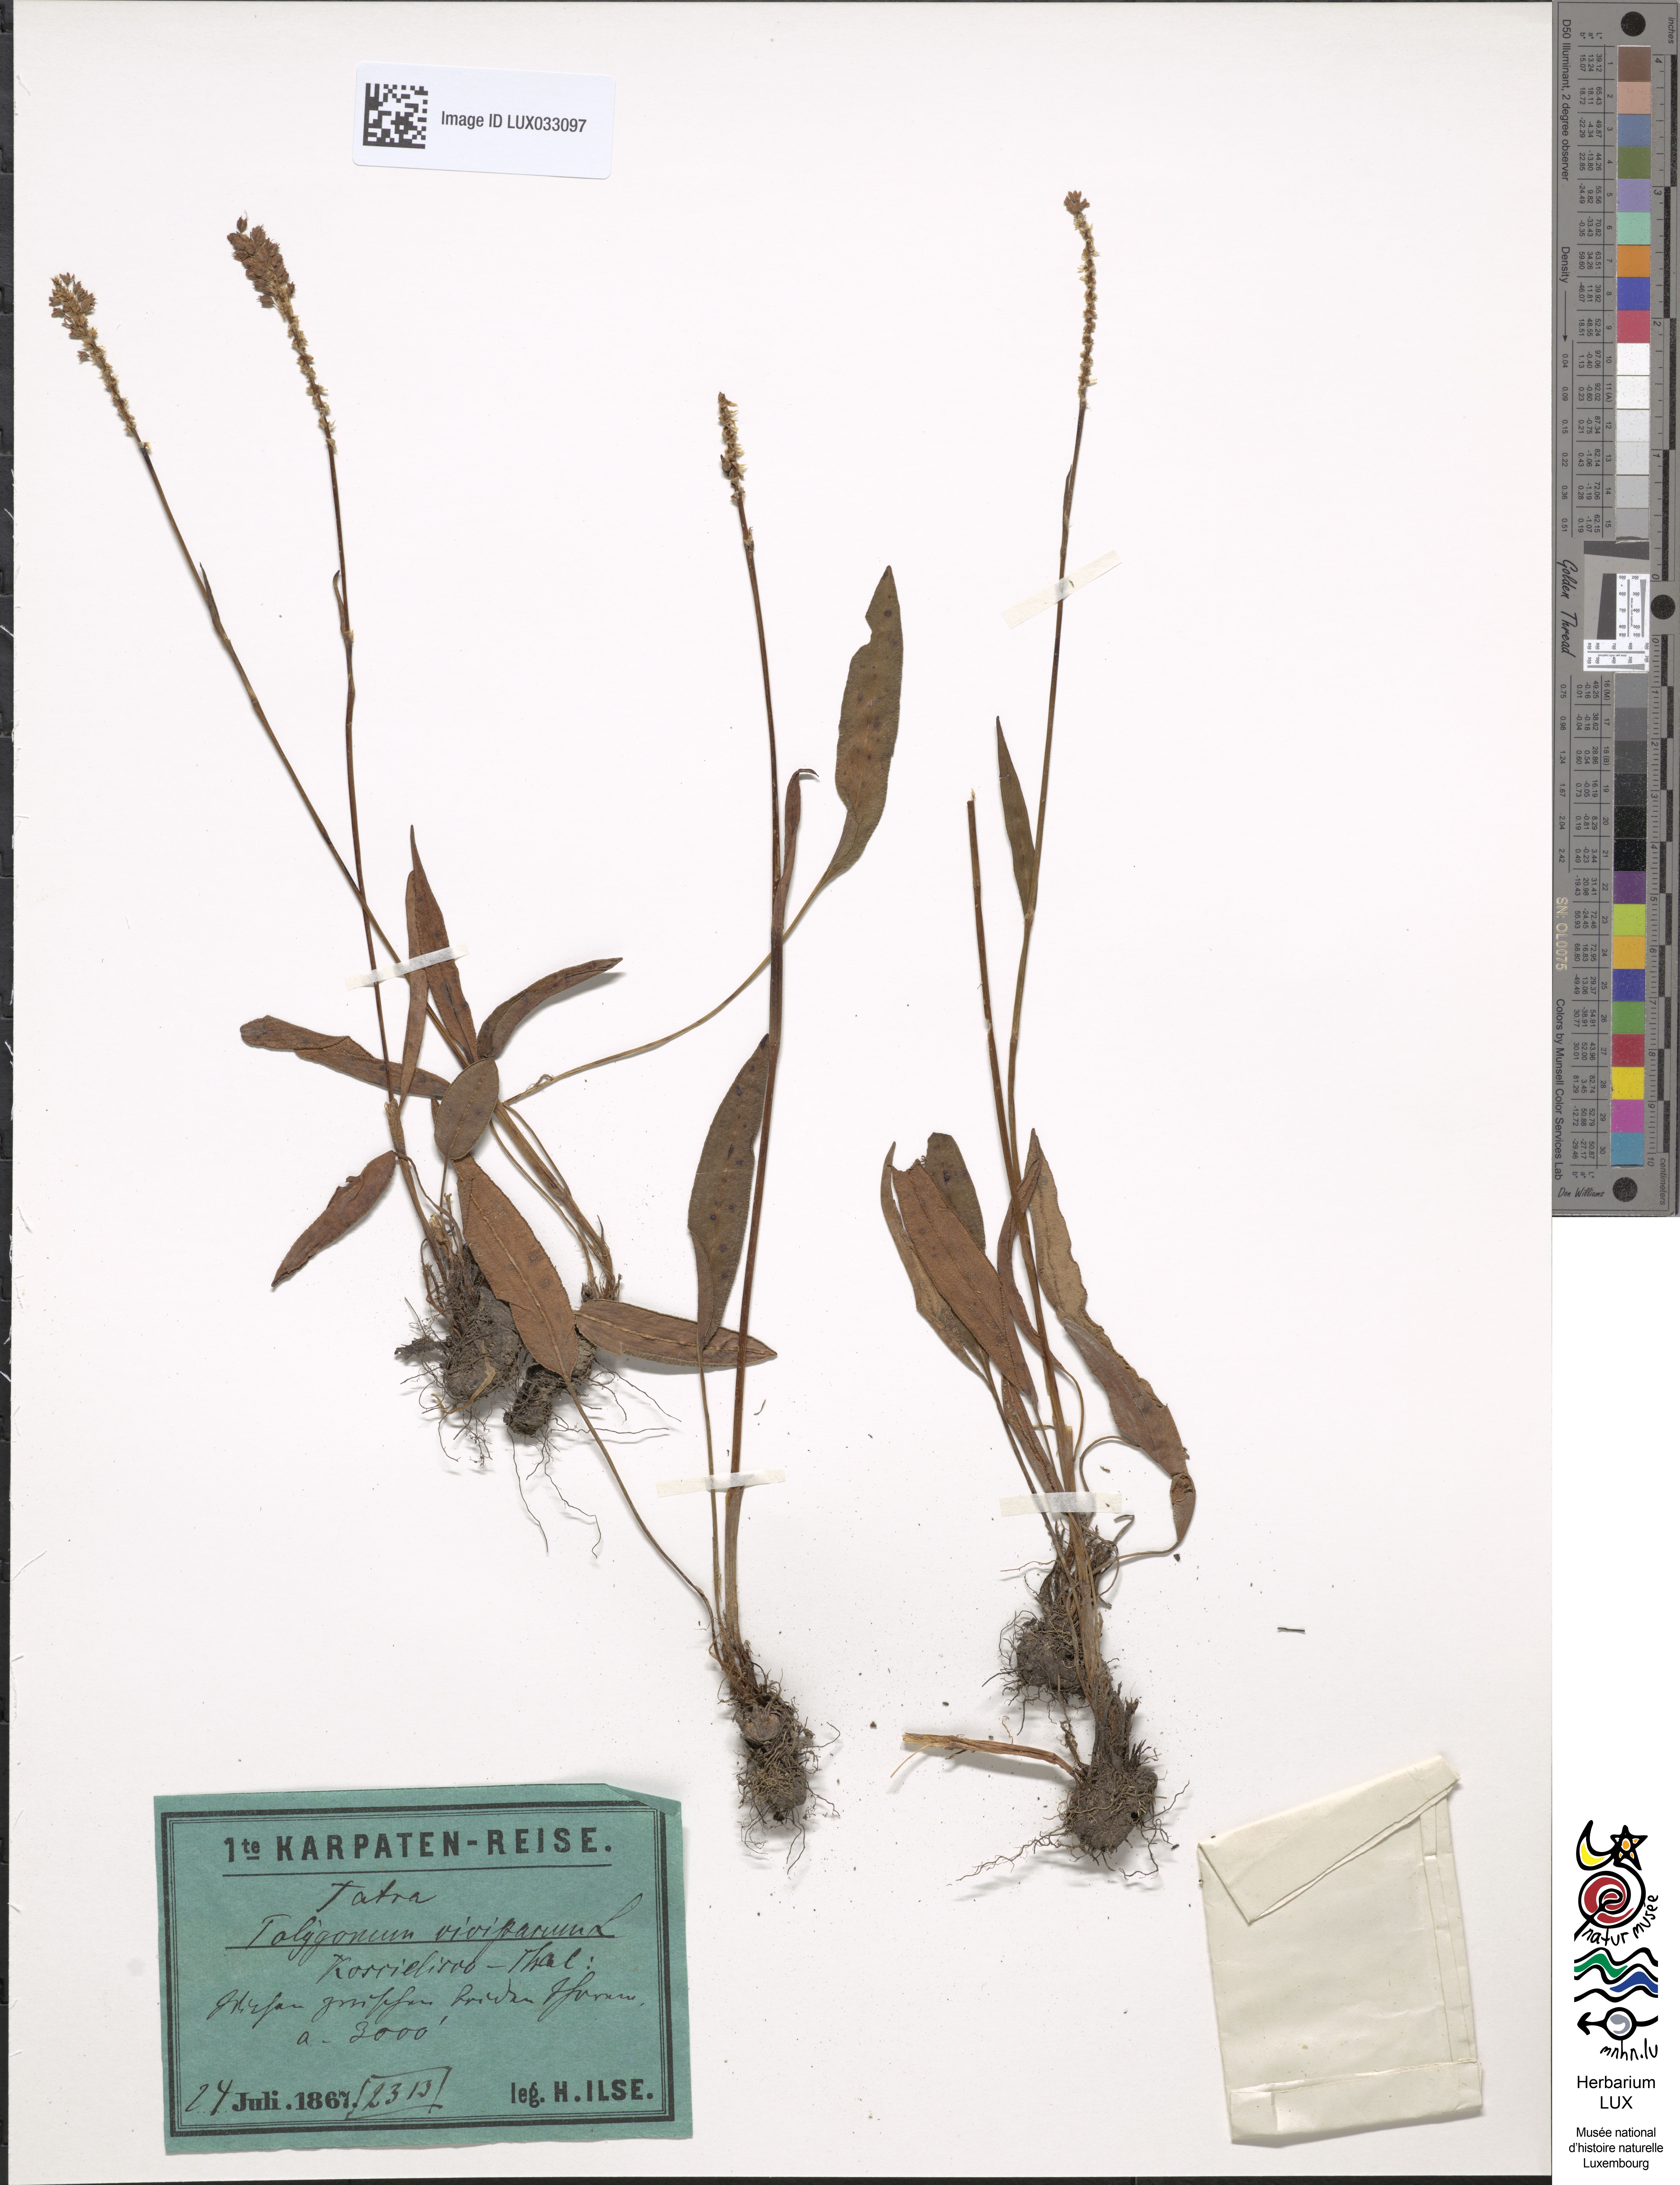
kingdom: Plantae
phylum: Tracheophyta
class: Magnoliopsida
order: Caryophyllales
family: Polygonaceae
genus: Bistorta
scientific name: Bistorta vivipara
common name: Alpine bistort
